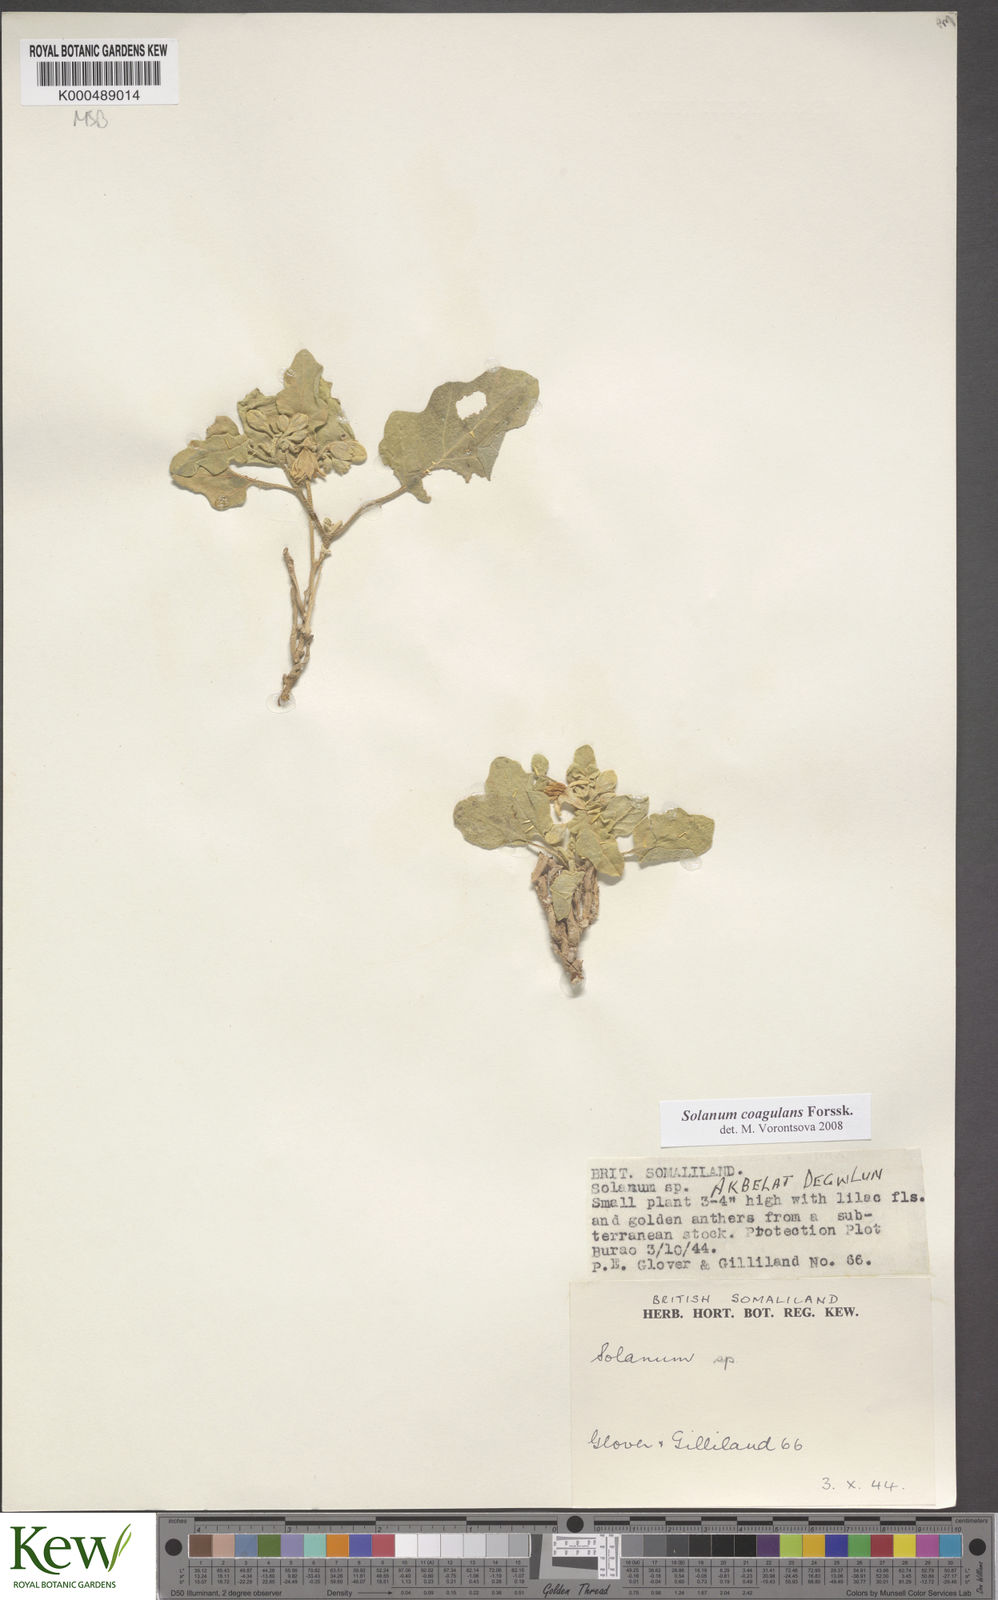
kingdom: Plantae
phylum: Tracheophyta
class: Magnoliopsida
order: Solanales
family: Solanaceae
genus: Solanum
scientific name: Solanum coagulans
